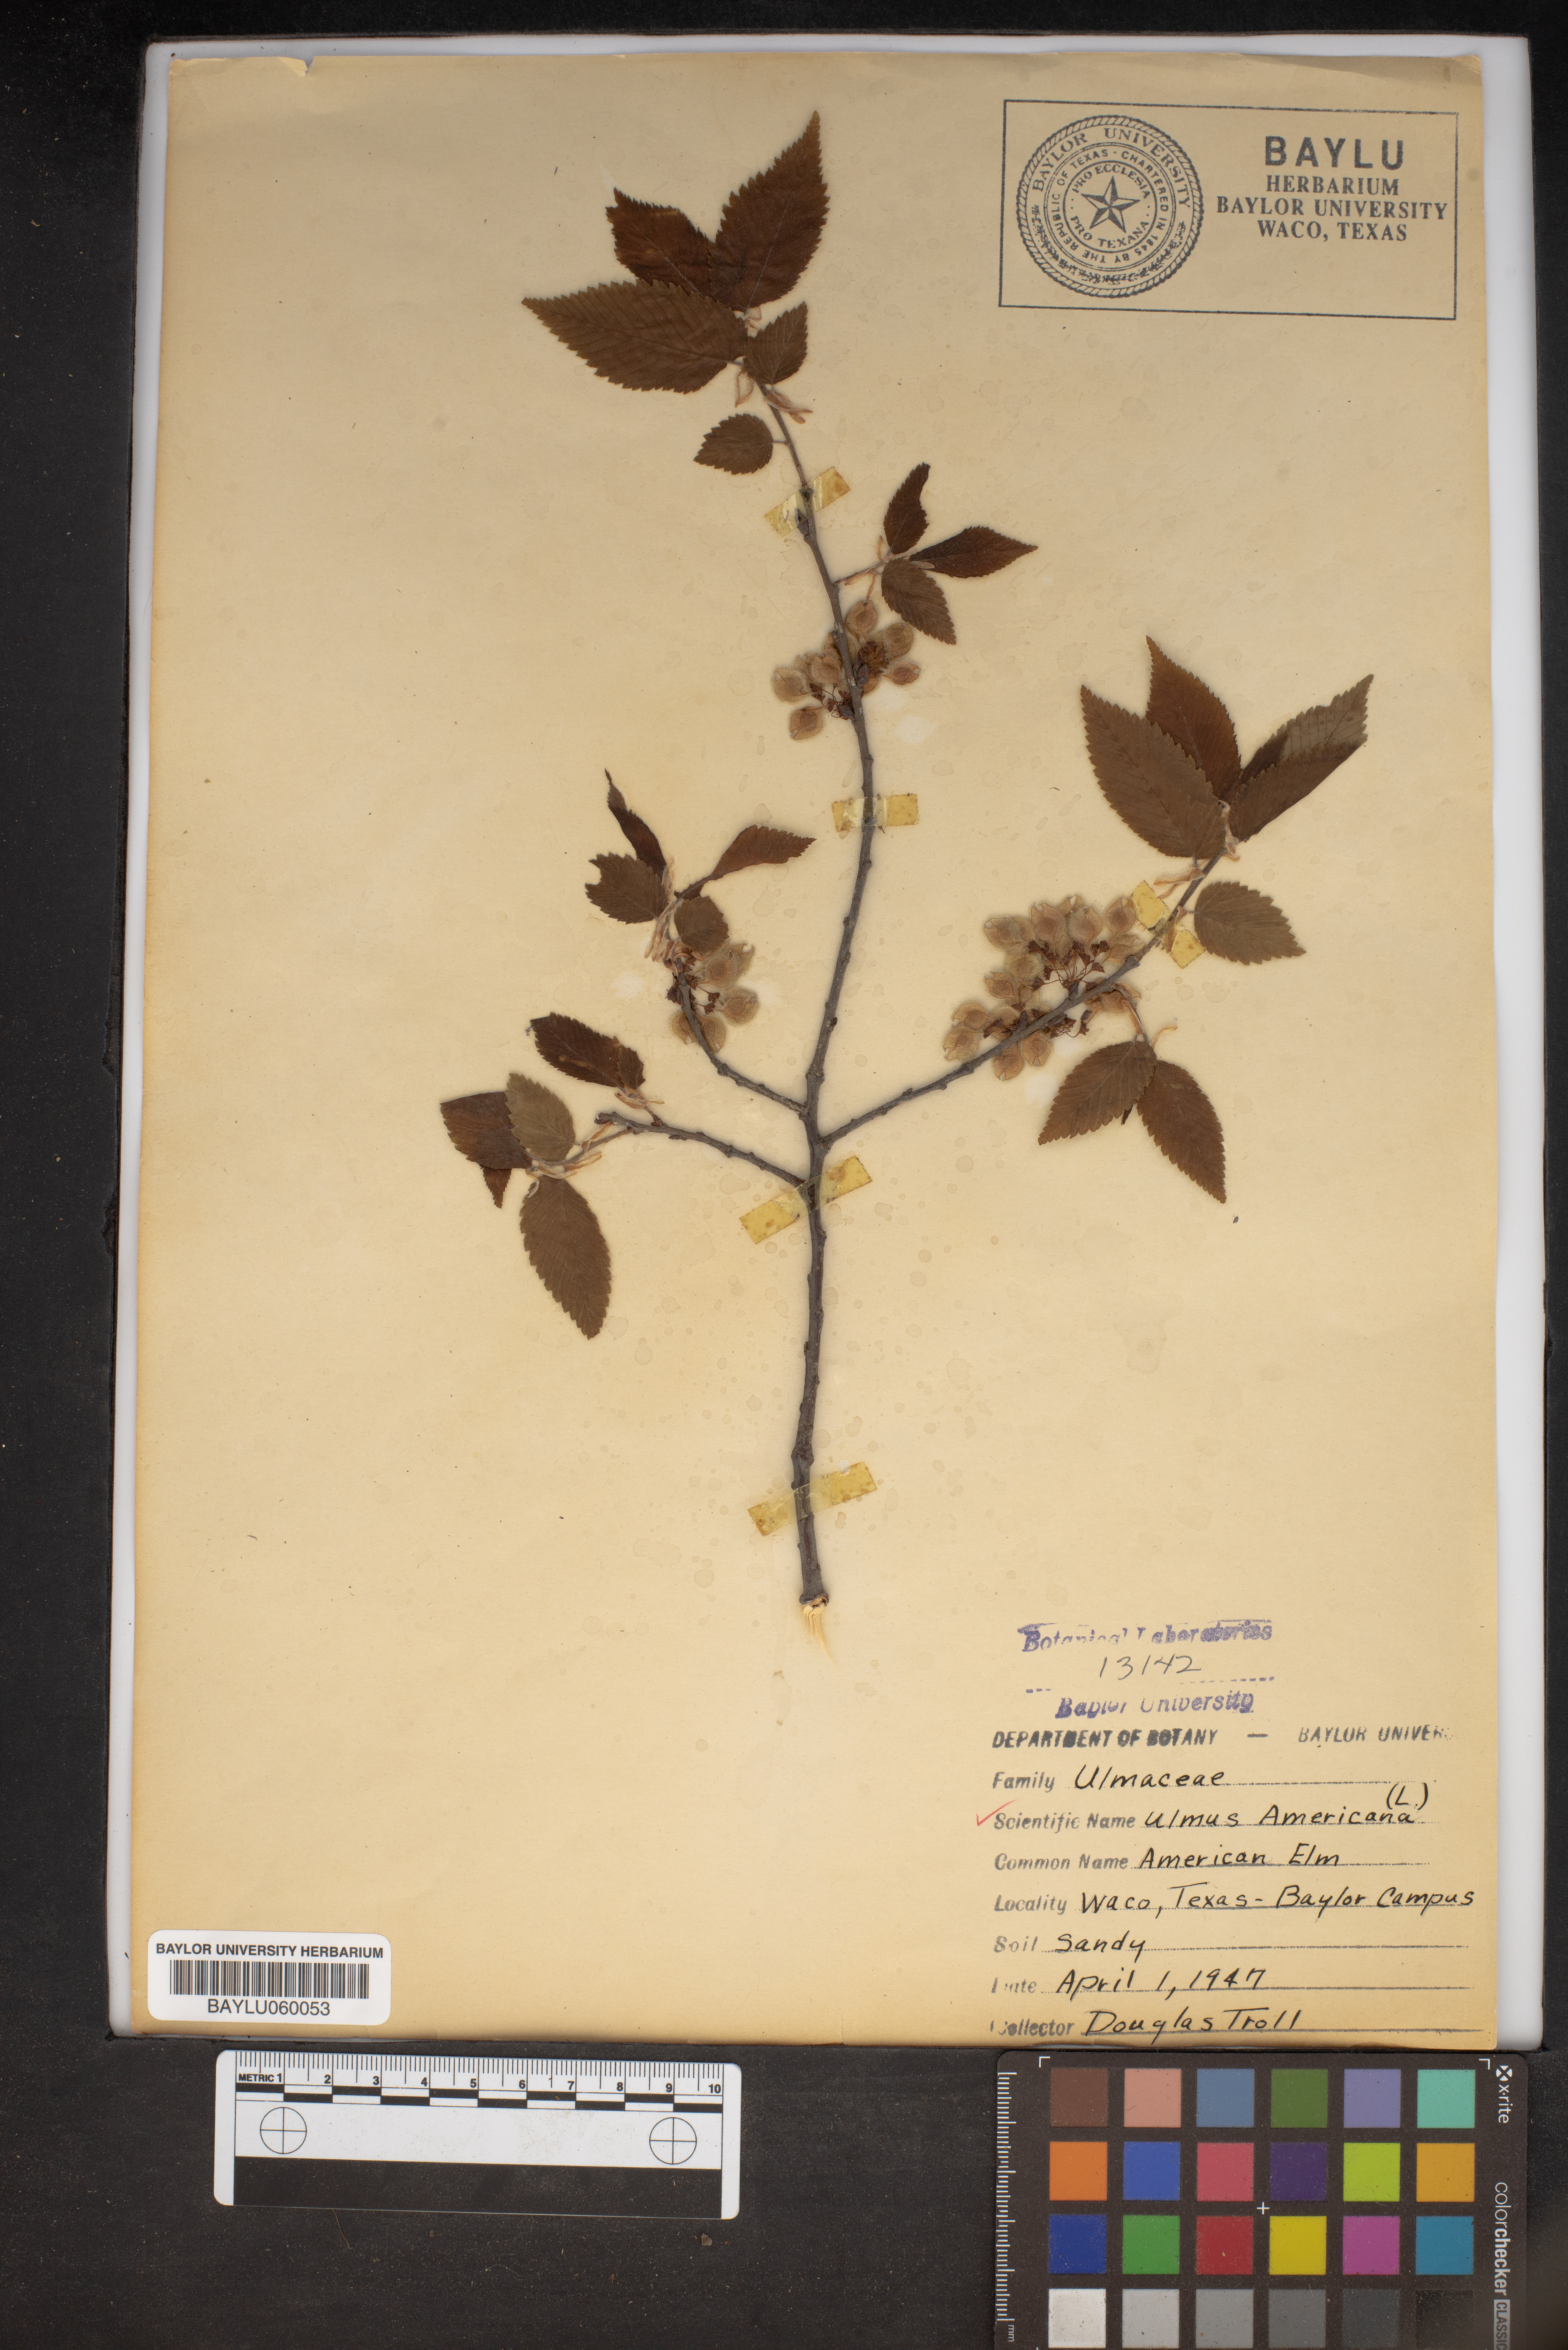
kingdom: Plantae
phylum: Tracheophyta
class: Magnoliopsida
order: Rosales
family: Ulmaceae
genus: Ulmus
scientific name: Ulmus americana
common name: American elm
